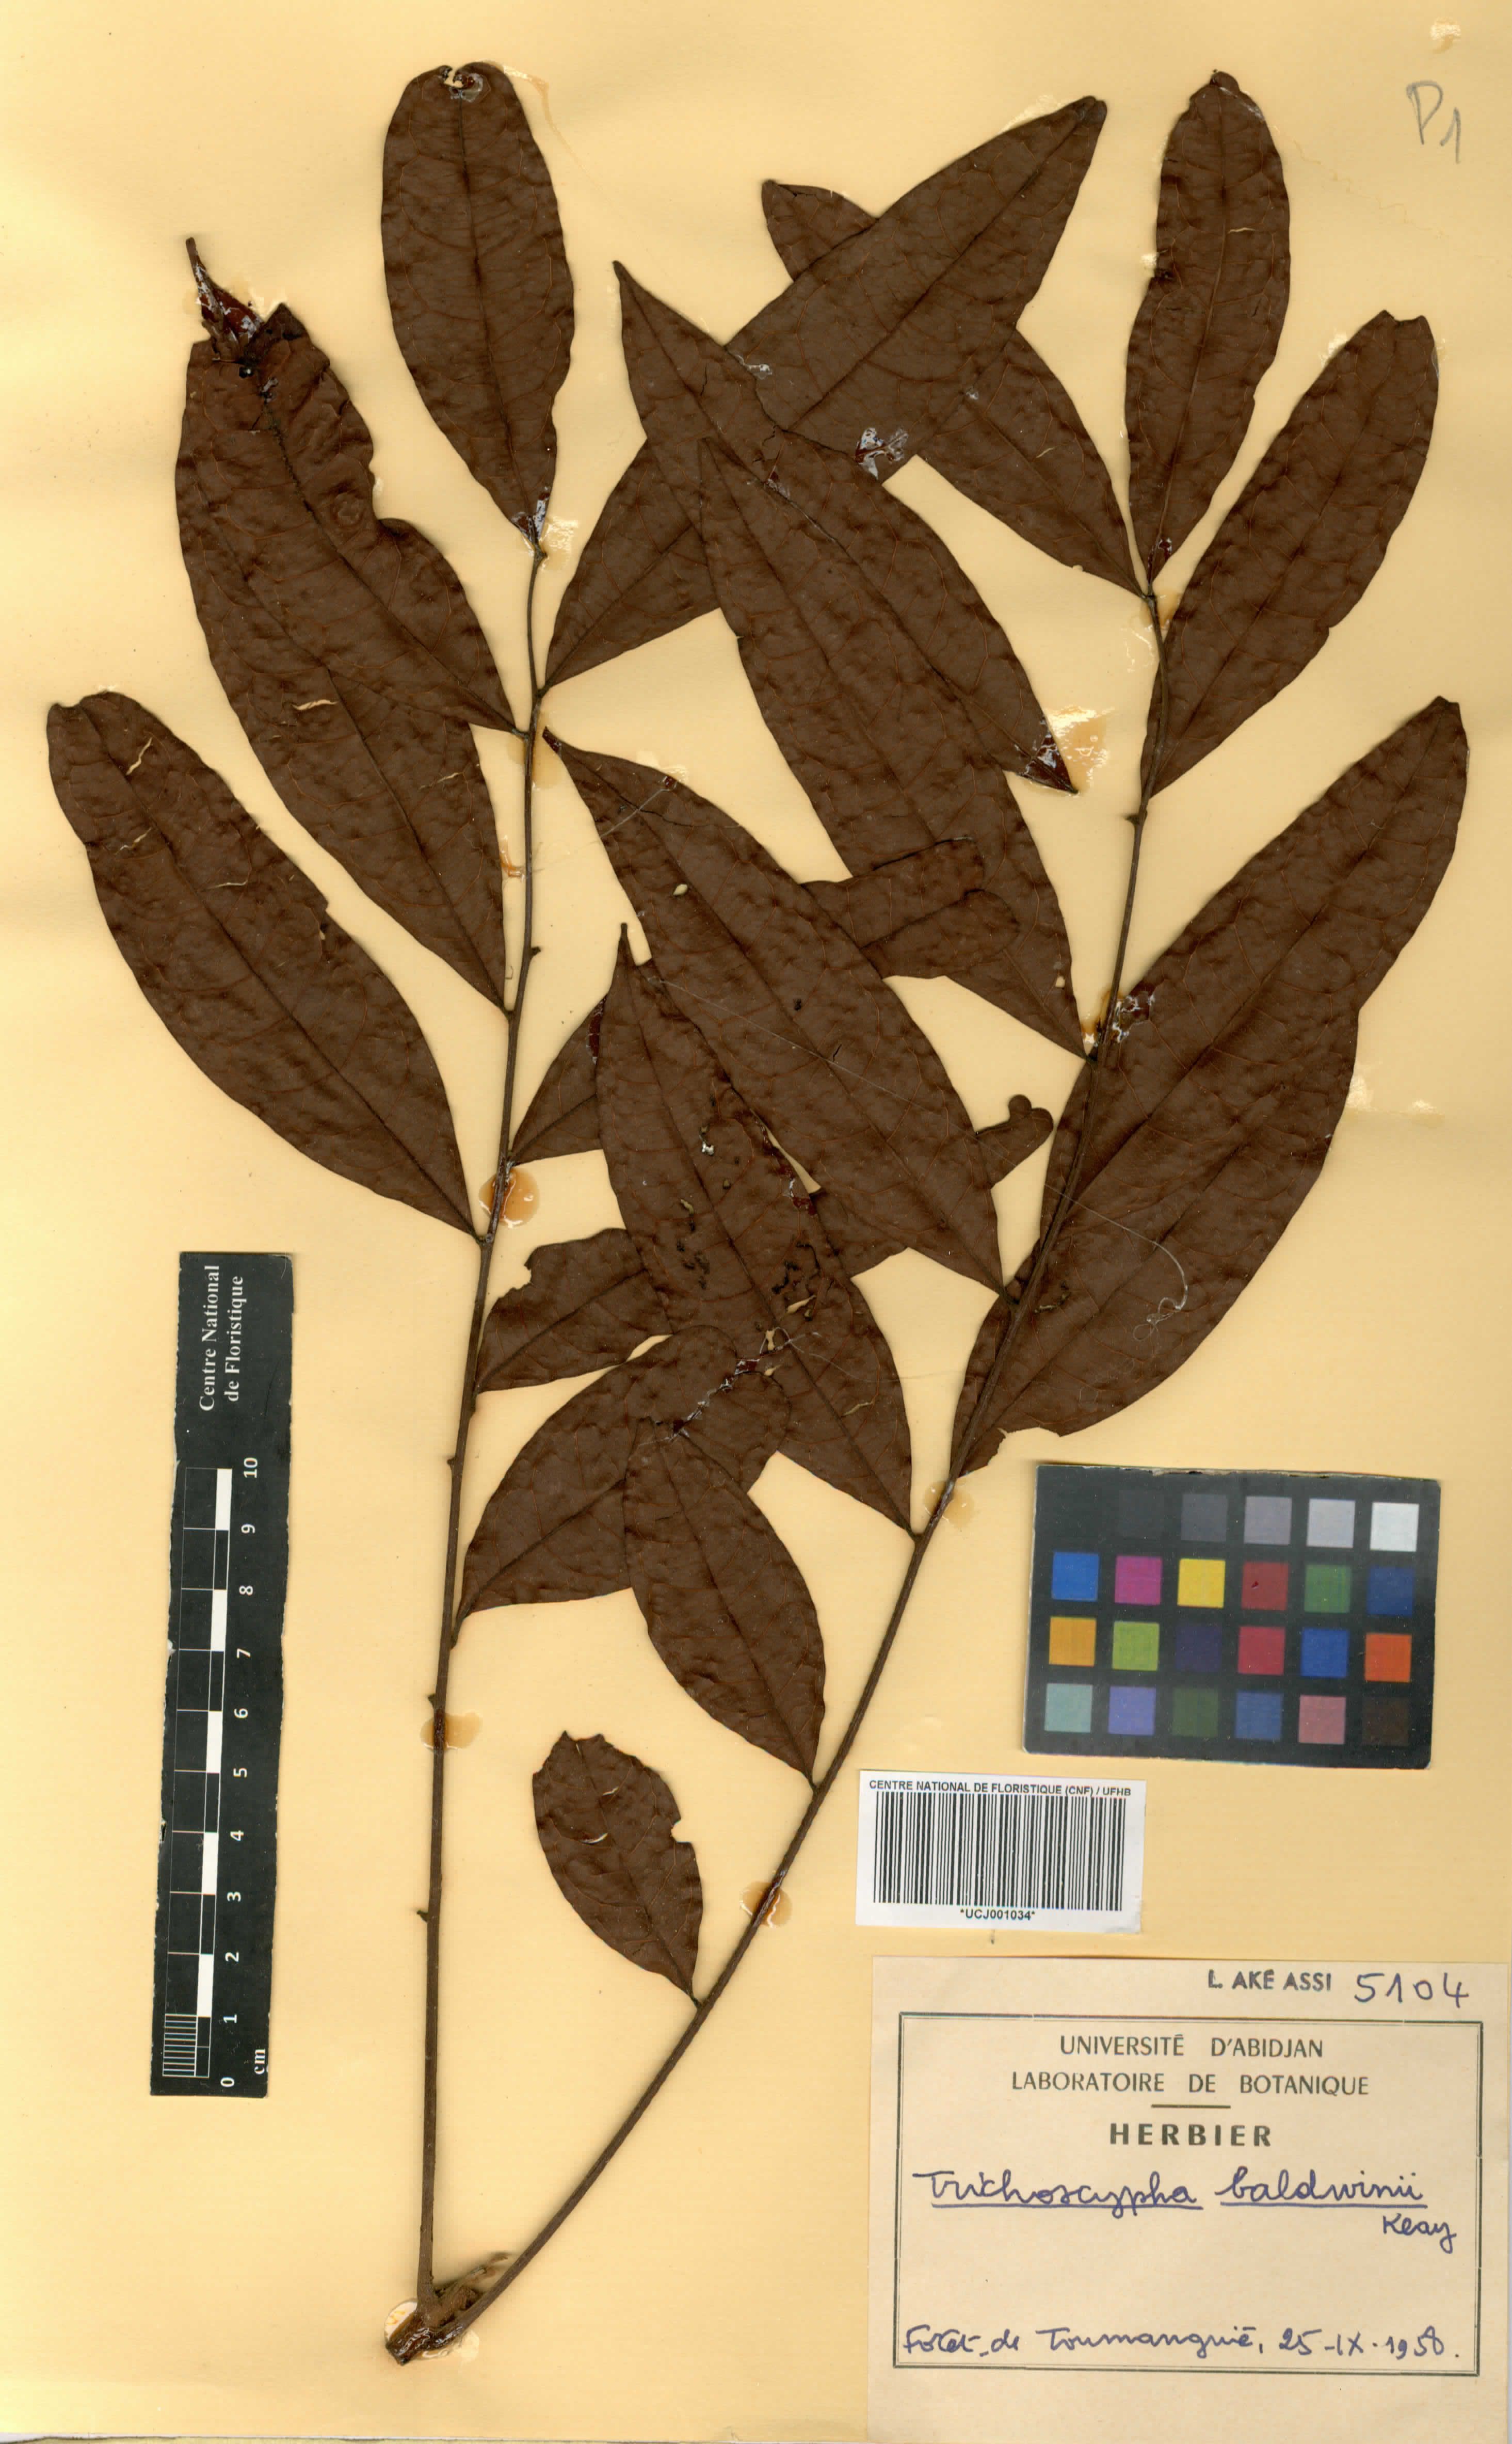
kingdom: Plantae
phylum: Tracheophyta
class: Magnoliopsida
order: Sapindales
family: Anacardiaceae
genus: Trichoscypha
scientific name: Trichoscypha baldwinii
